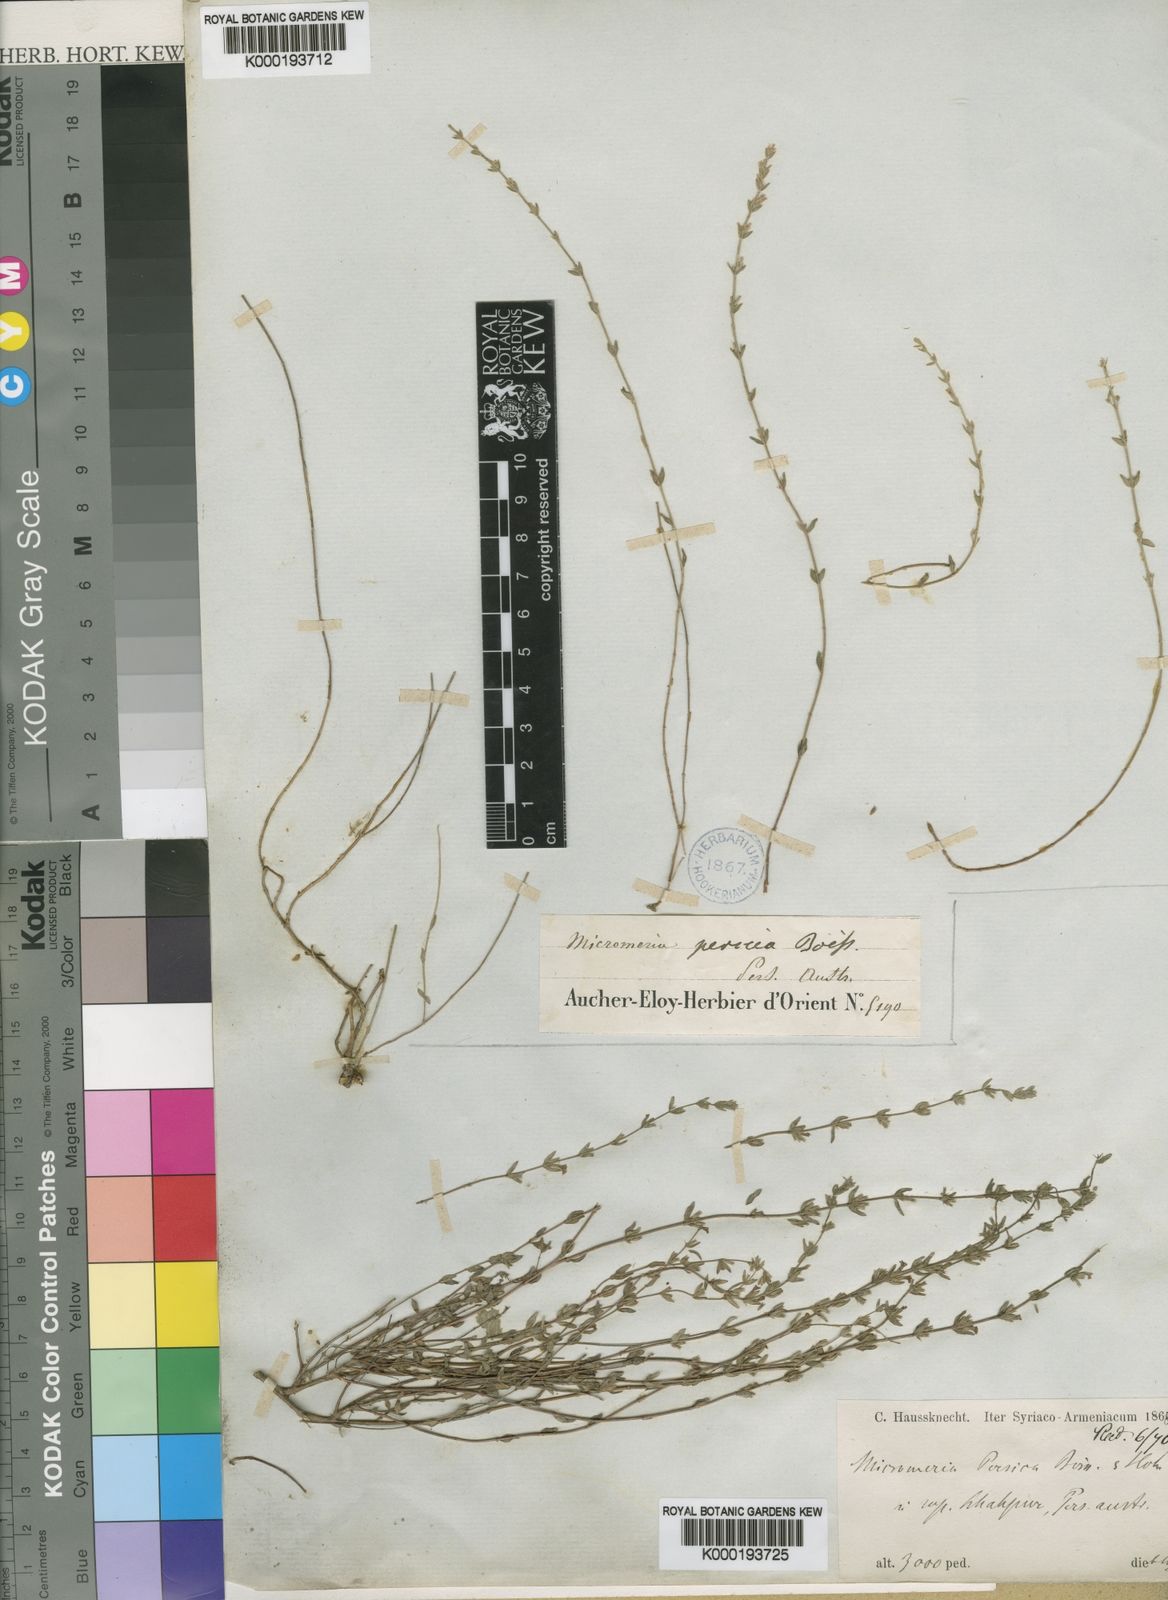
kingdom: Plantae
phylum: Tracheophyta
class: Magnoliopsida
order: Lamiales
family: Lamiaceae
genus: Micromeria
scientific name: Micromeria persica
